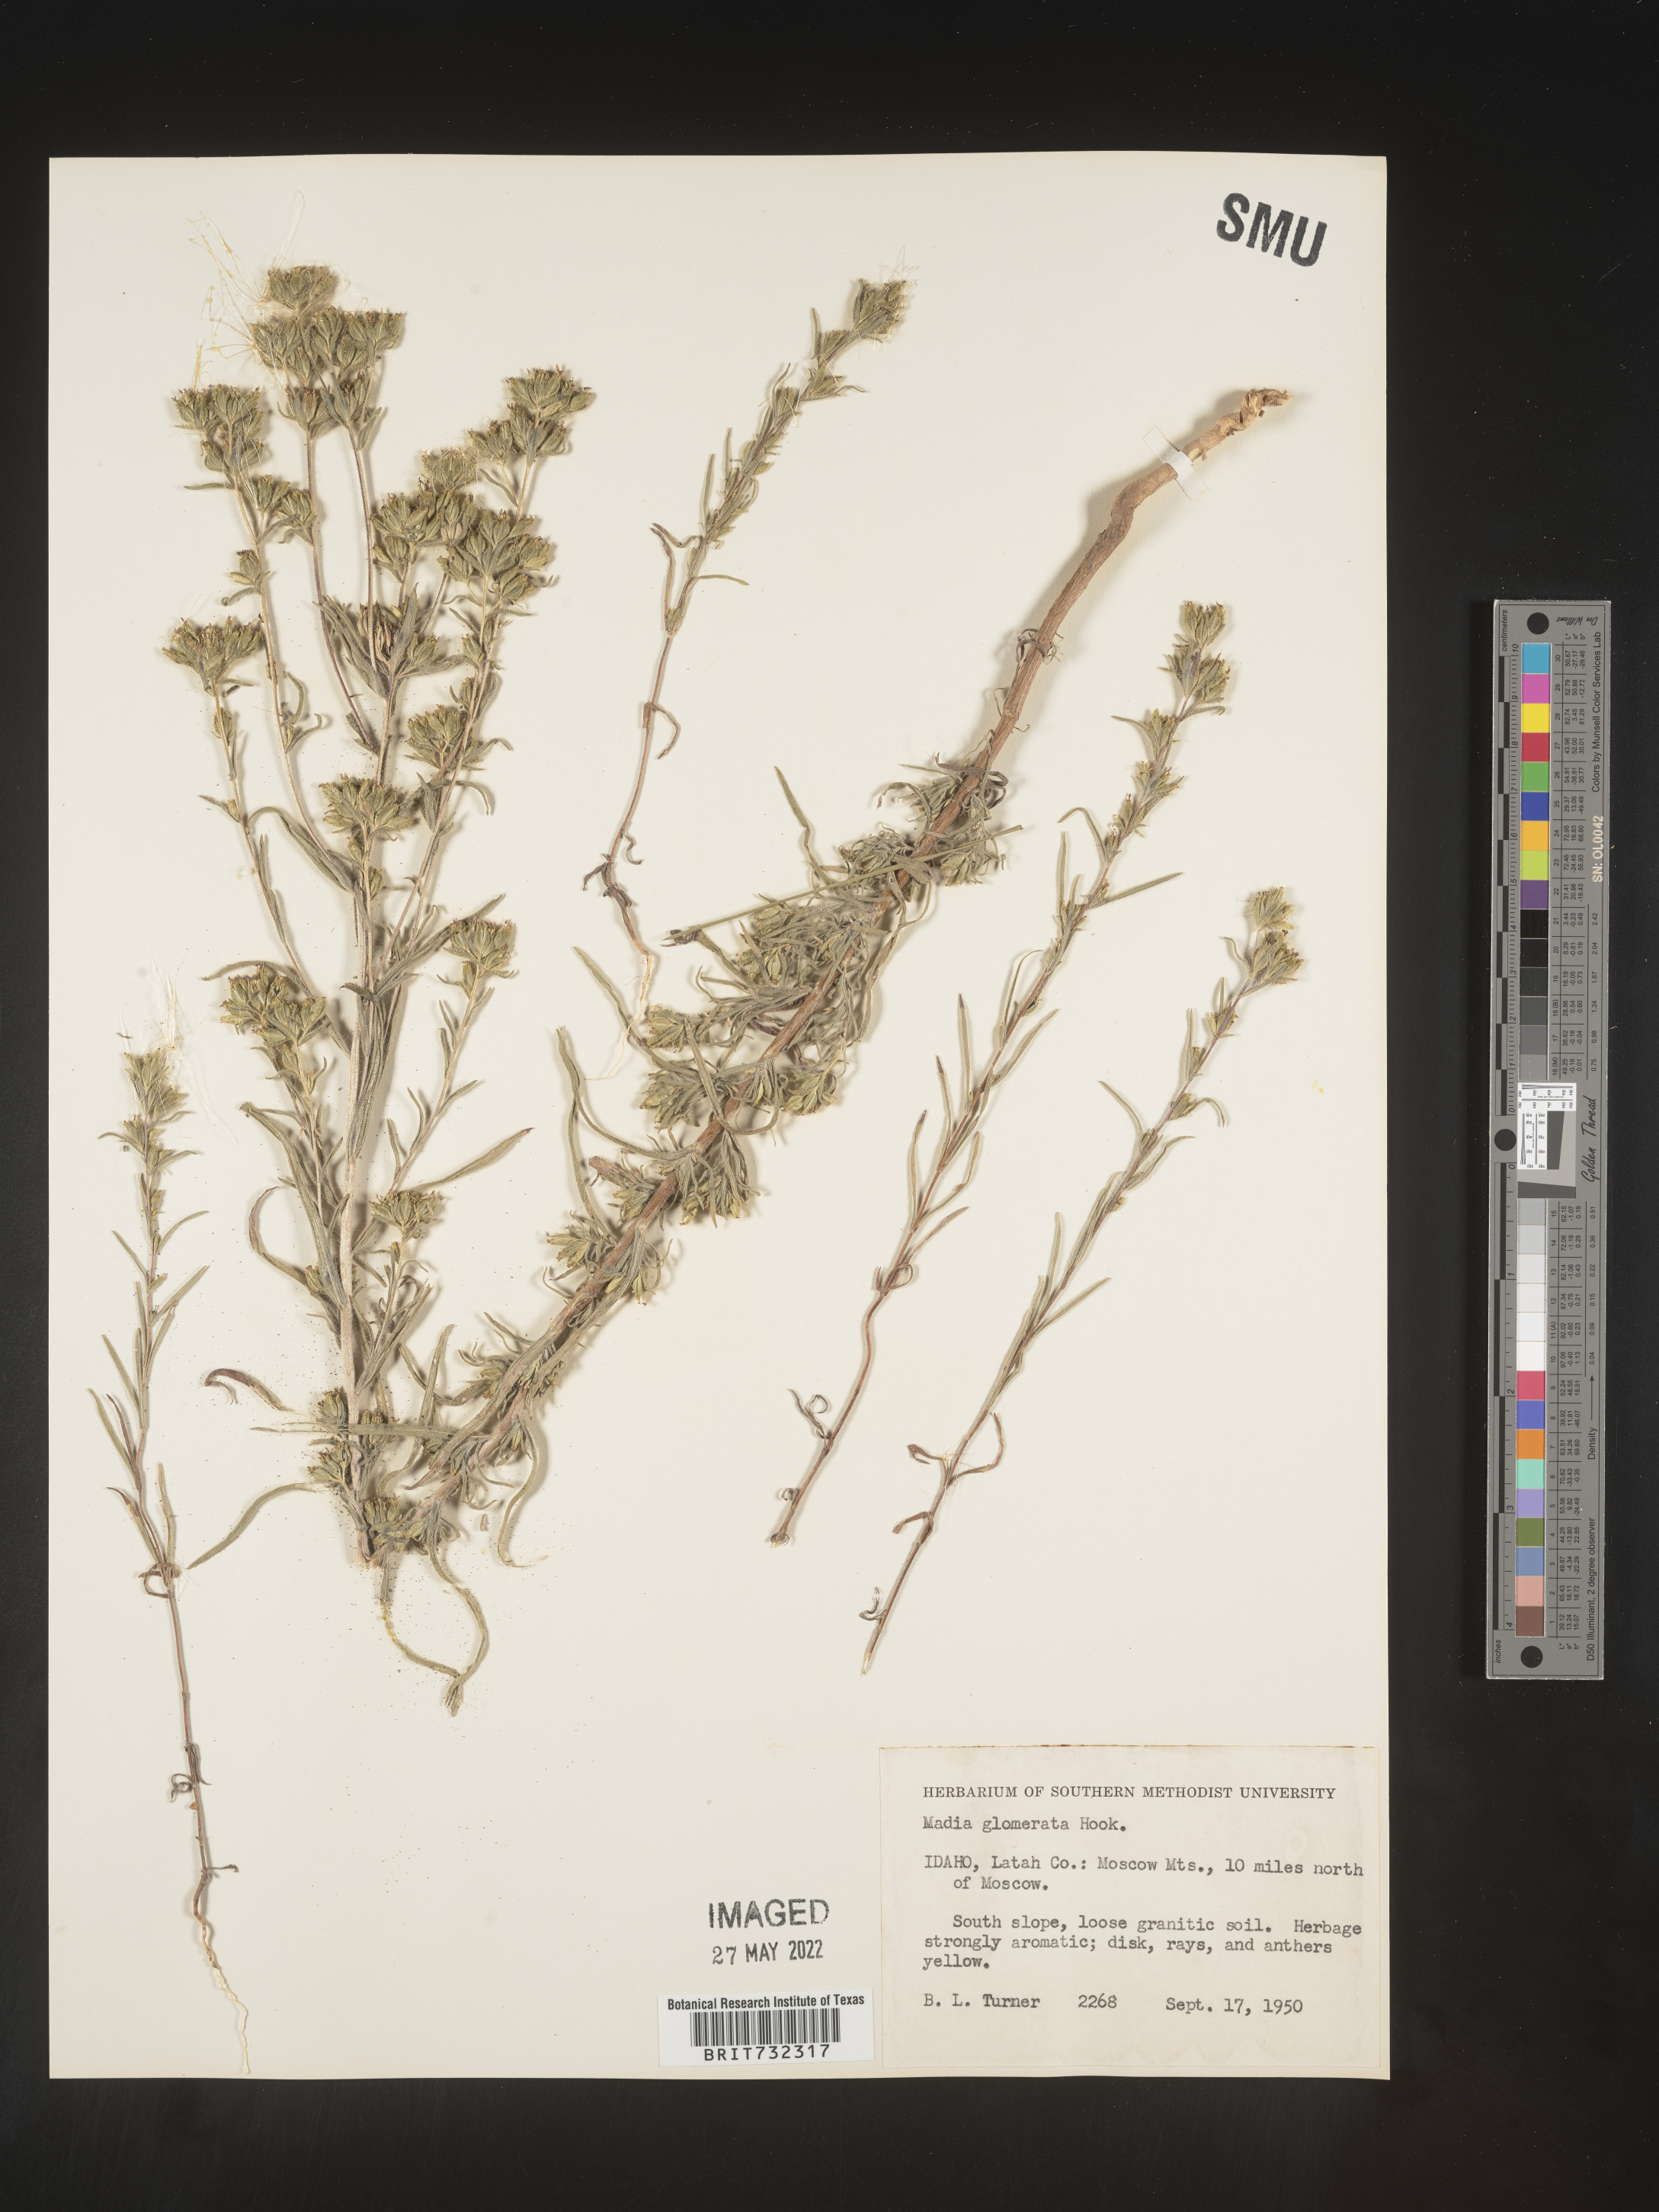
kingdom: Plantae
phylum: Tracheophyta
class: Magnoliopsida
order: Asterales
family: Asteraceae
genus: Madia
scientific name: Madia glomerata
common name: Mountain tarweed
